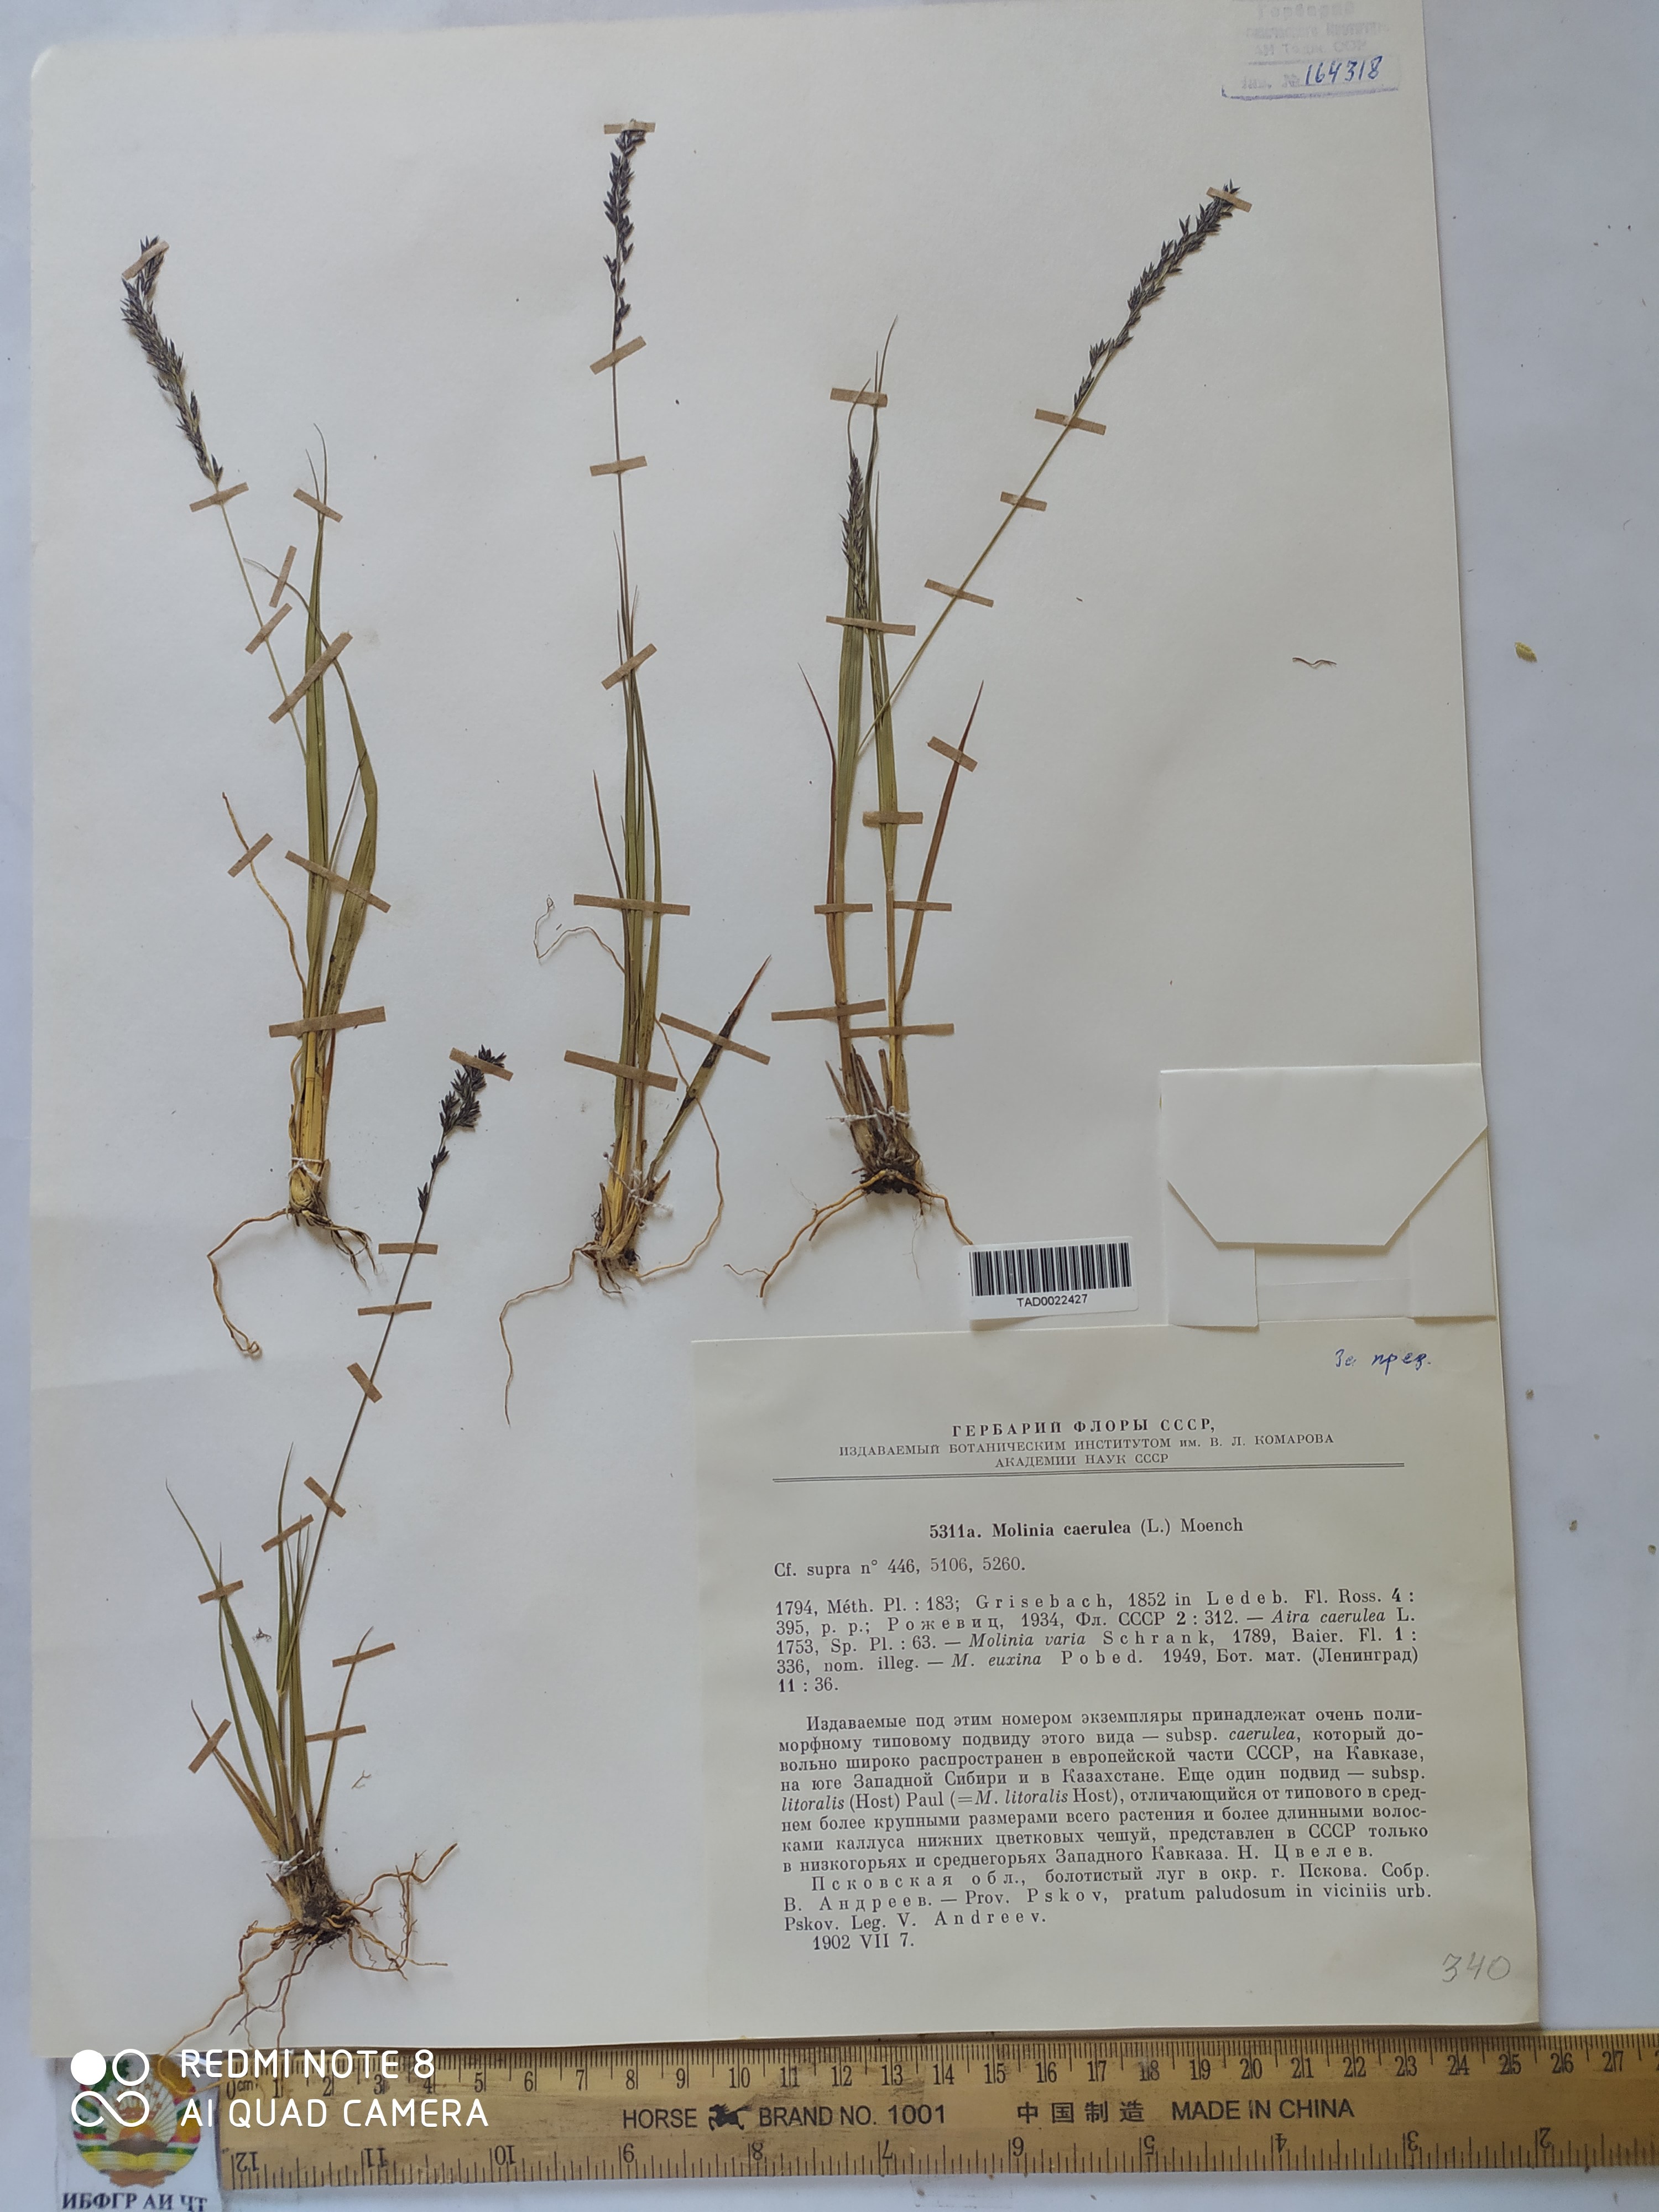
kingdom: Plantae
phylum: Tracheophyta
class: Liliopsida
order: Poales
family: Poaceae
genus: Molinia
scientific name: Molinia caerulea
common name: Purple moor-grass
